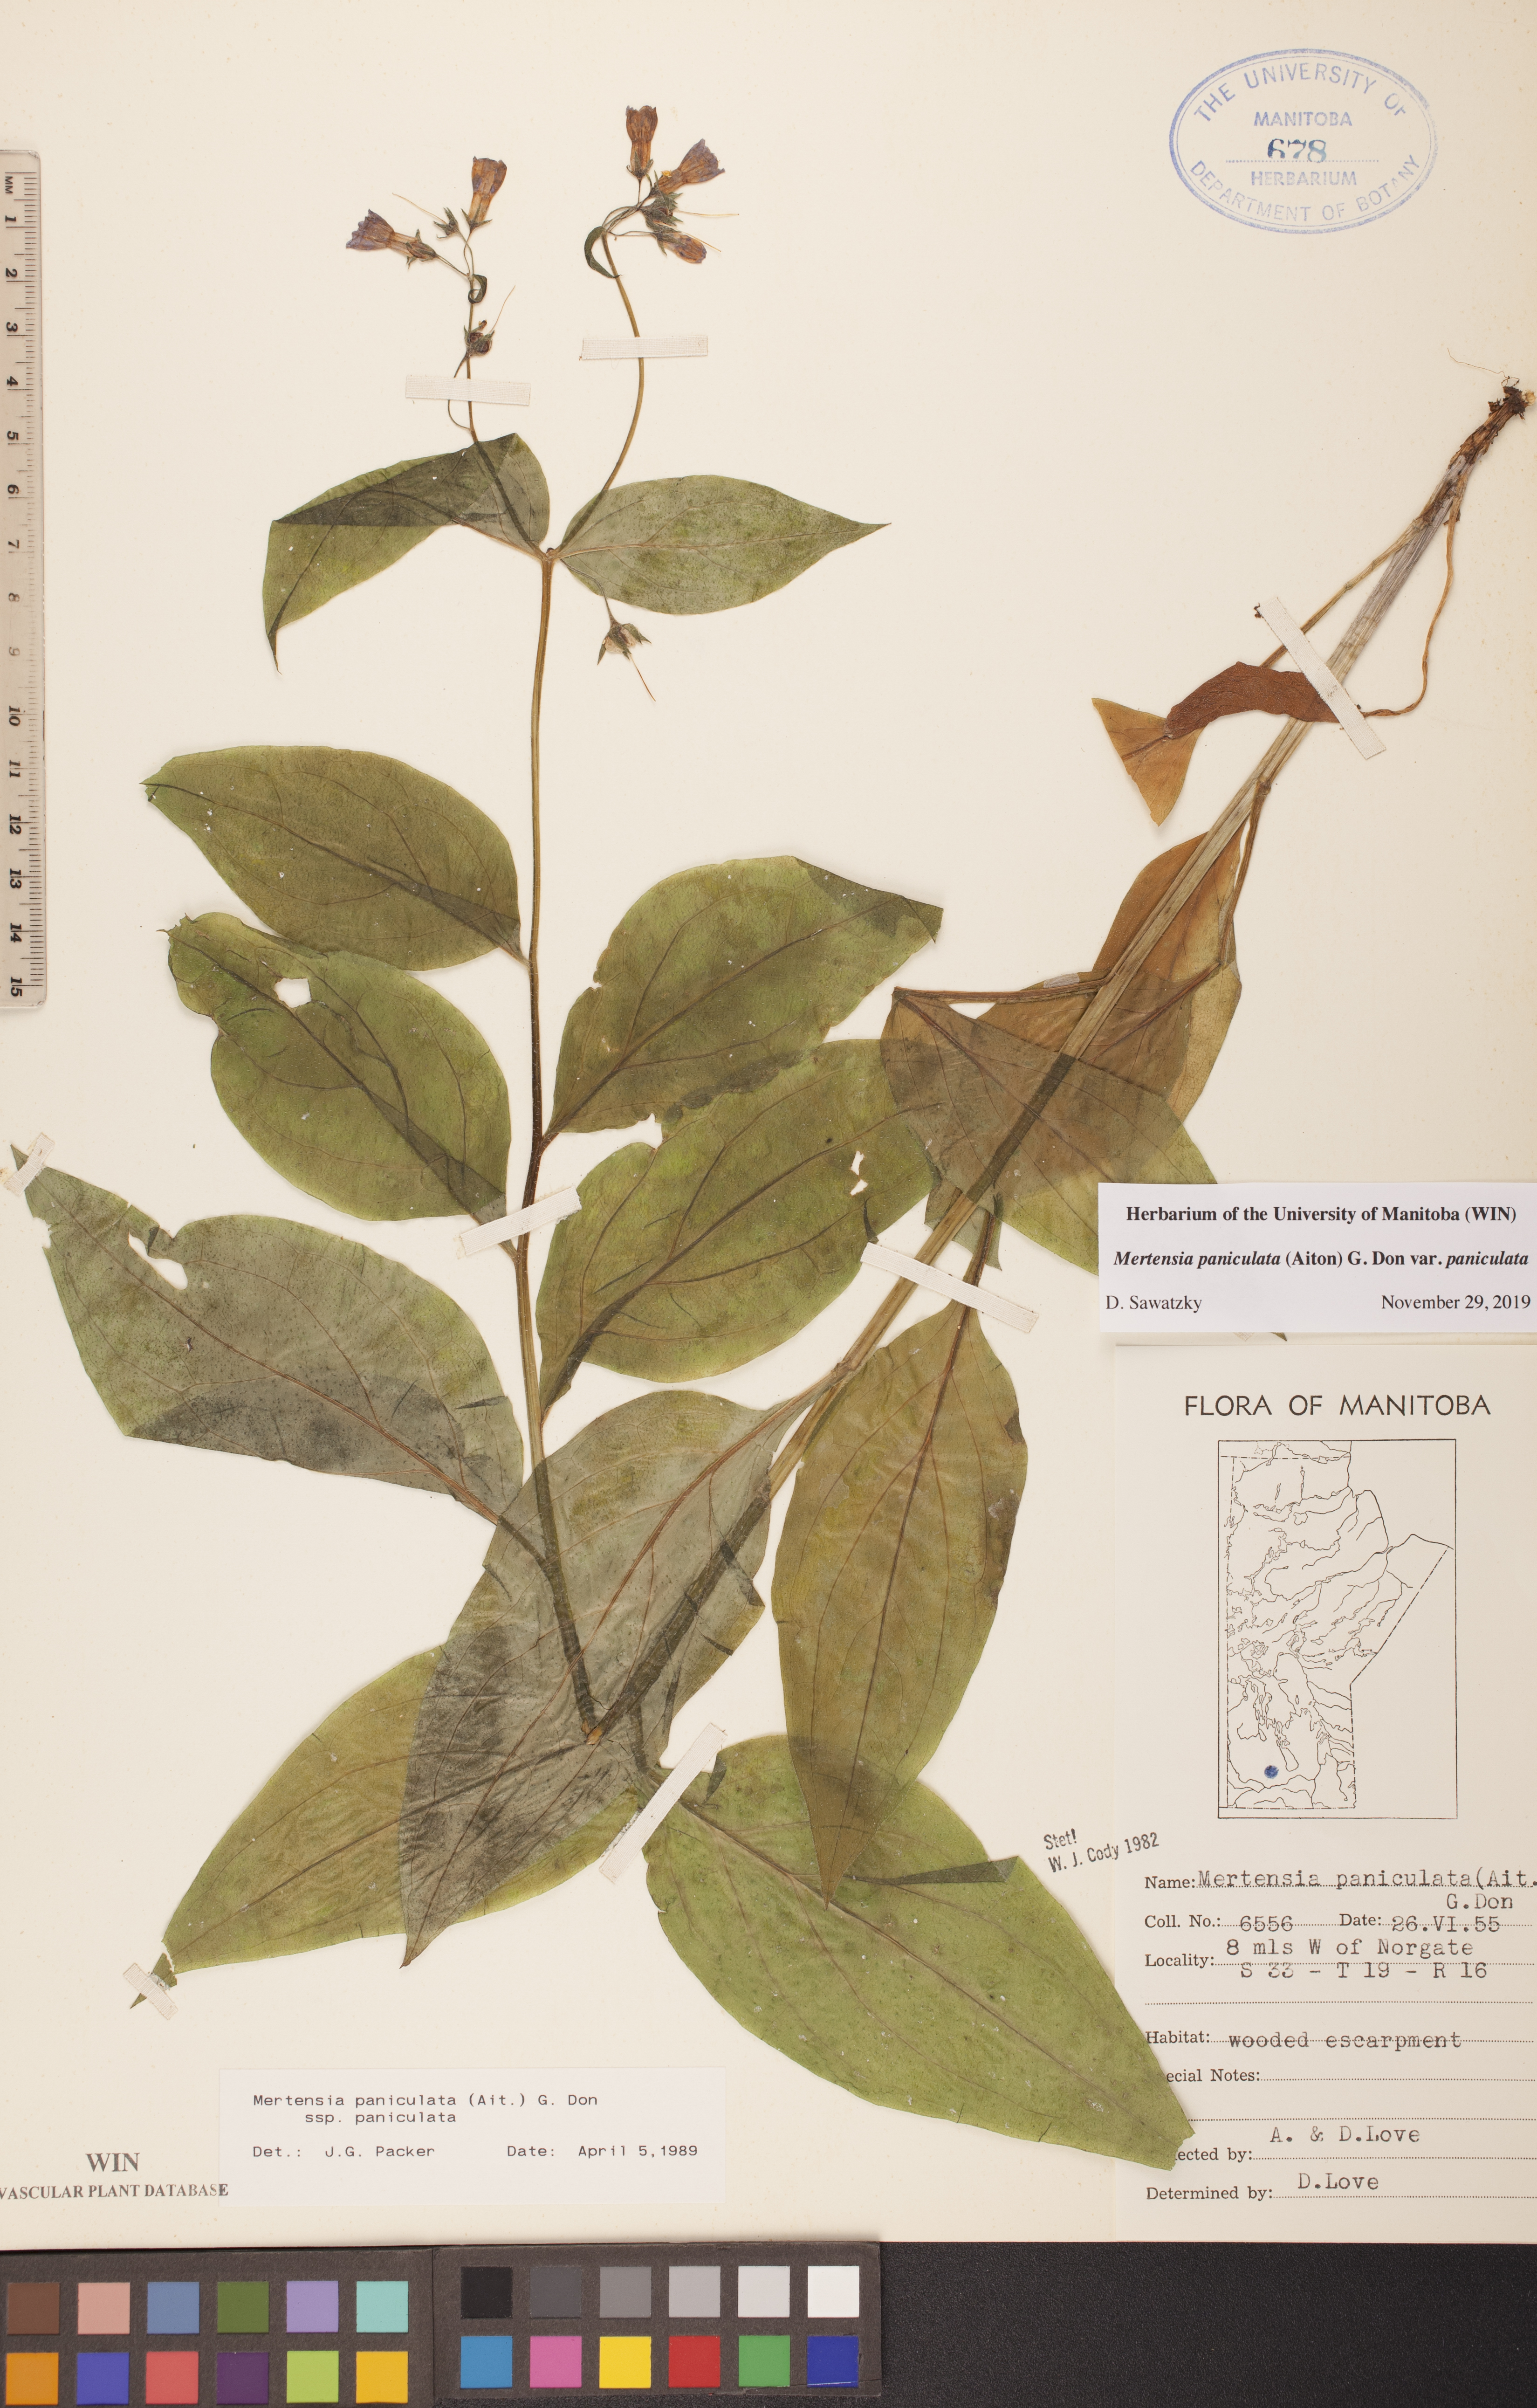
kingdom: Plantae
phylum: Tracheophyta
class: Magnoliopsida
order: Boraginales
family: Boraginaceae
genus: Mertensia
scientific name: Mertensia paniculata
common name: Panicled bluebells
